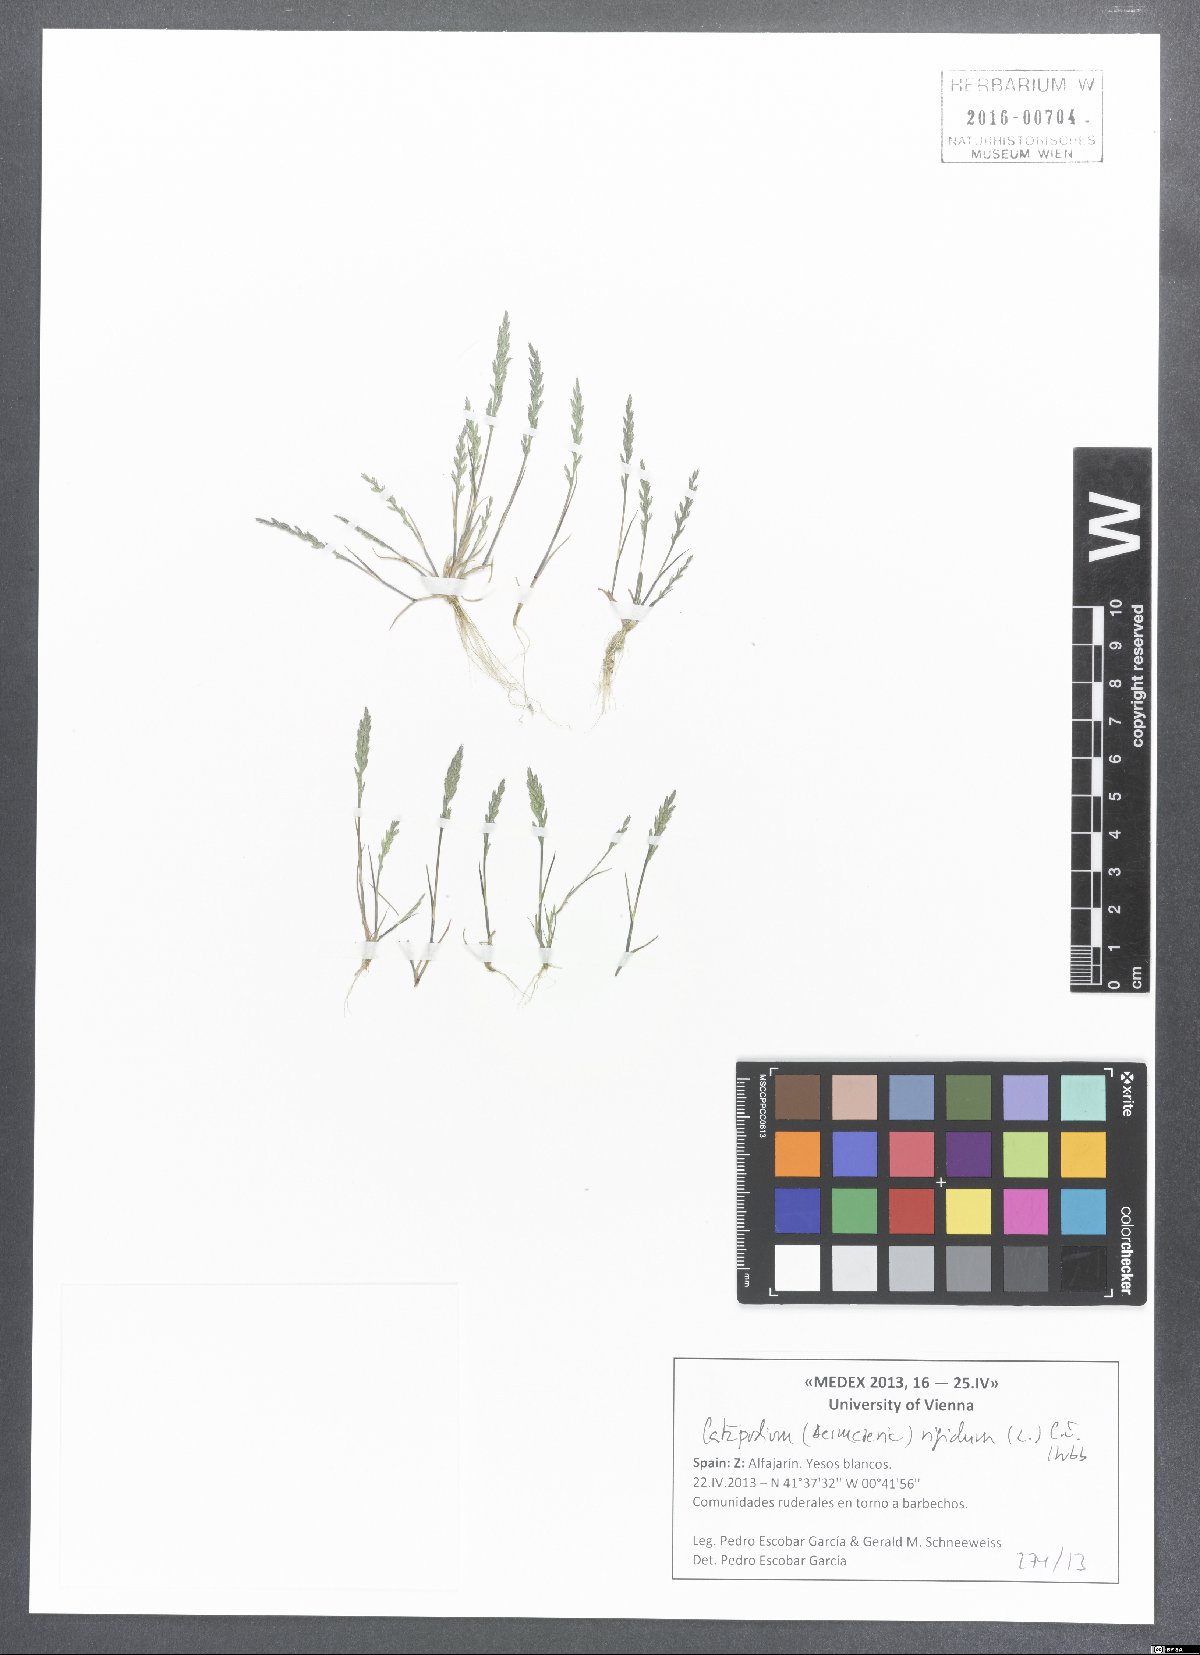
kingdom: Plantae
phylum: Tracheophyta
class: Liliopsida
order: Poales
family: Poaceae
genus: Catapodium
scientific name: Catapodium rigidum
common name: Fern-grass
